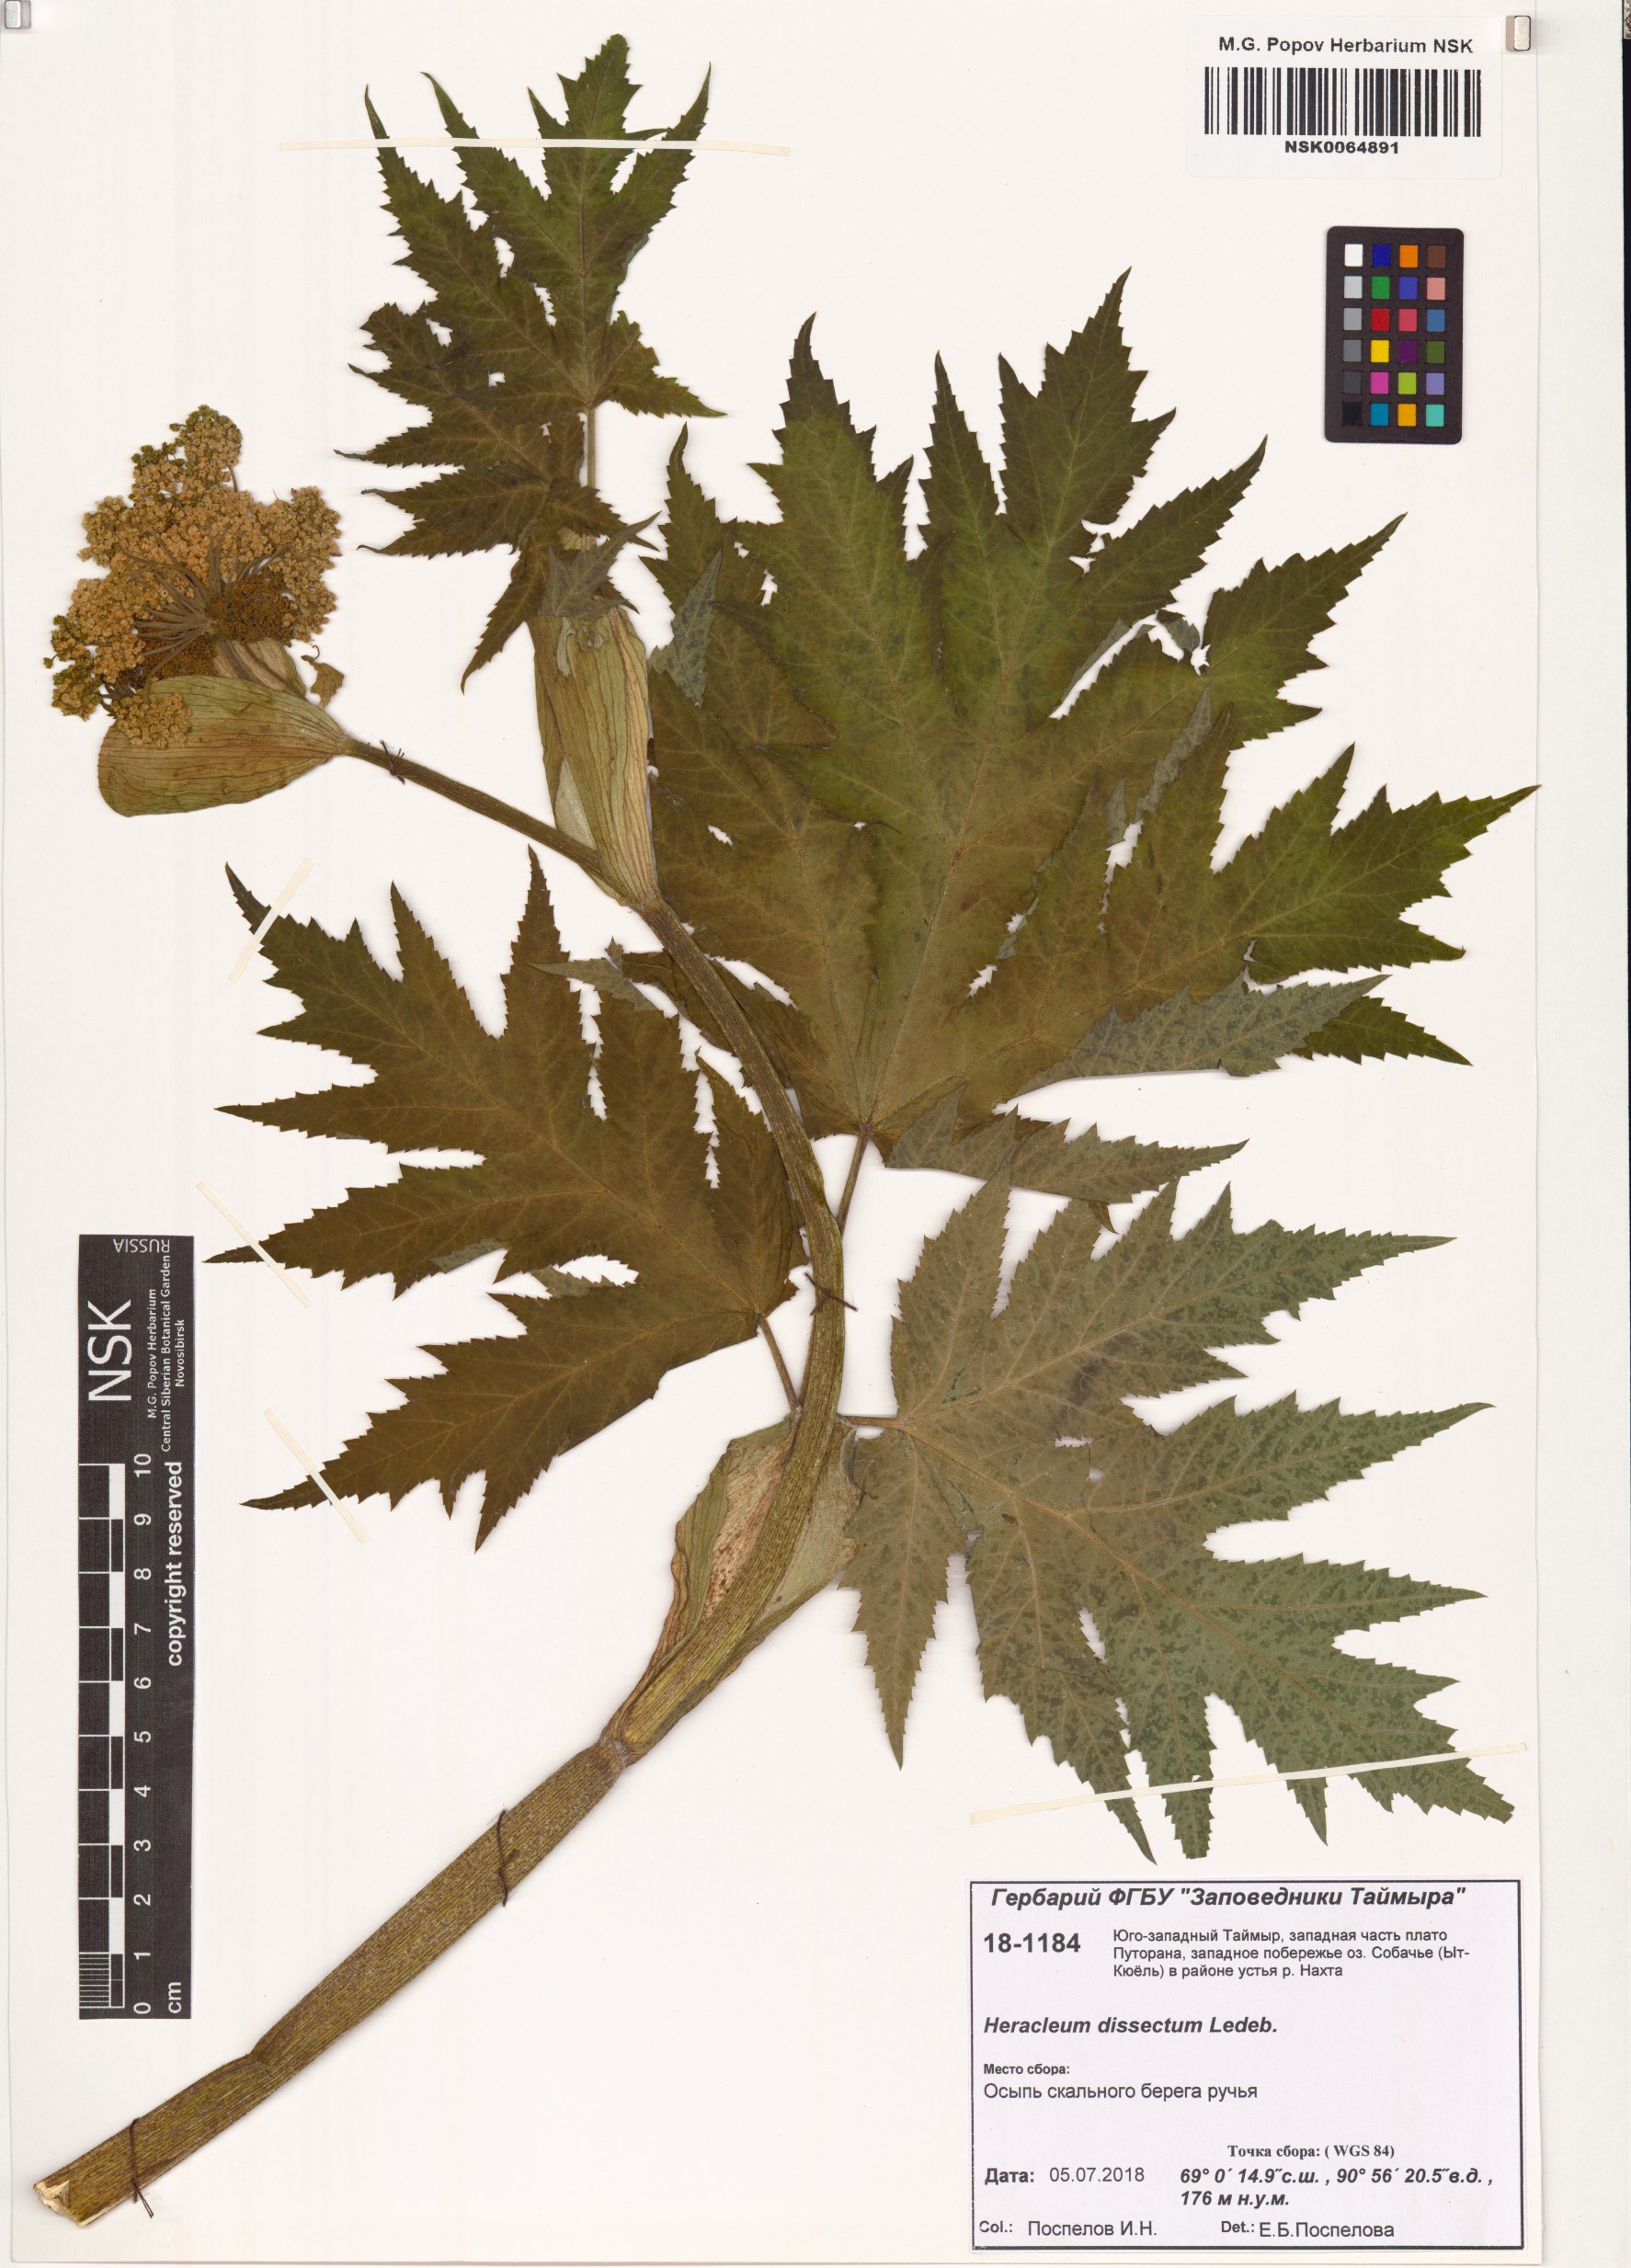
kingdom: Plantae
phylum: Tracheophyta
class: Magnoliopsida
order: Apiales
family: Apiaceae
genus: Heracleum
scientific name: Heracleum dissectum
